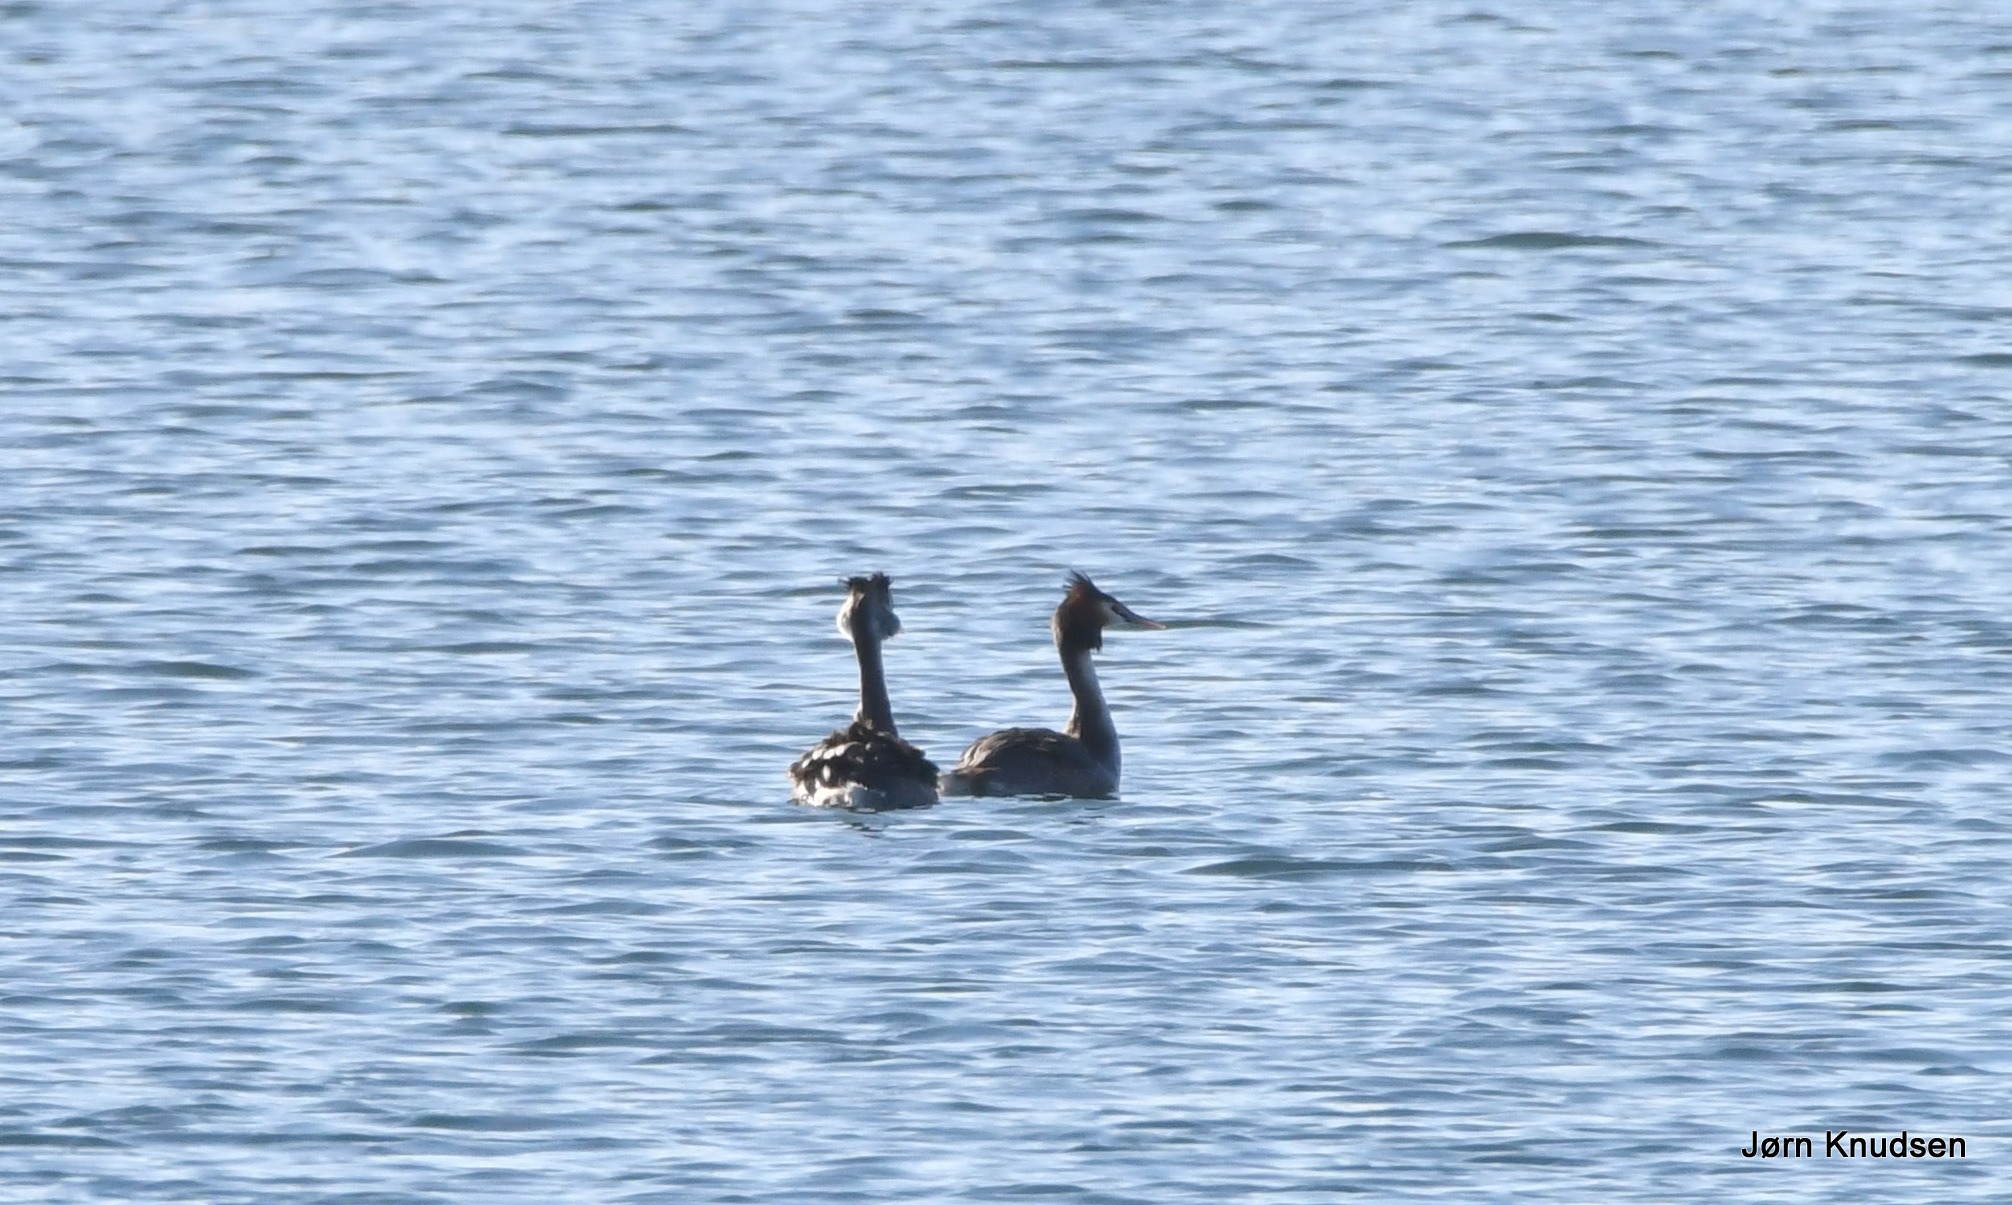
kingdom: Animalia
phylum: Chordata
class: Aves
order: Podicipediformes
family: Podicipedidae
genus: Podiceps
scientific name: Podiceps cristatus
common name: Toppet lappedykker
